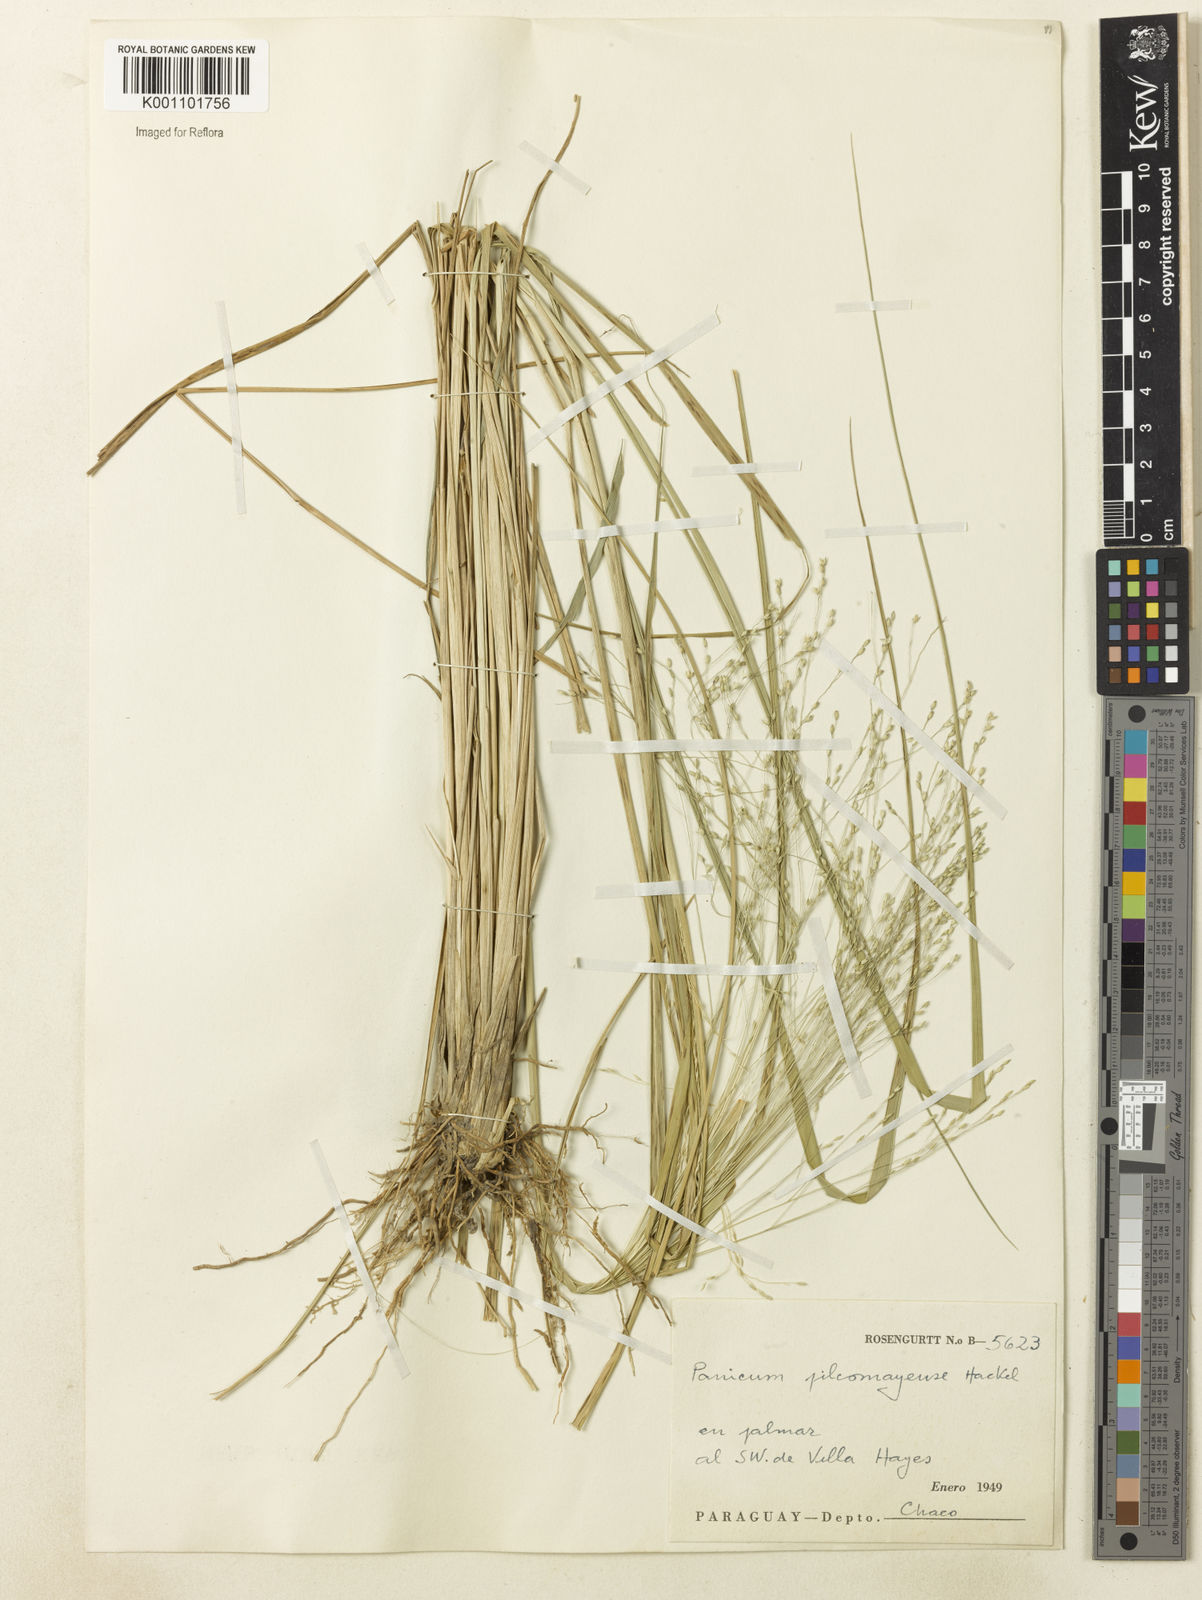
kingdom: Plantae
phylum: Tracheophyta
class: Liliopsida
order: Poales
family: Poaceae
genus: Panicum
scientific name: Panicum bergii
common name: Berg's panicgrass
